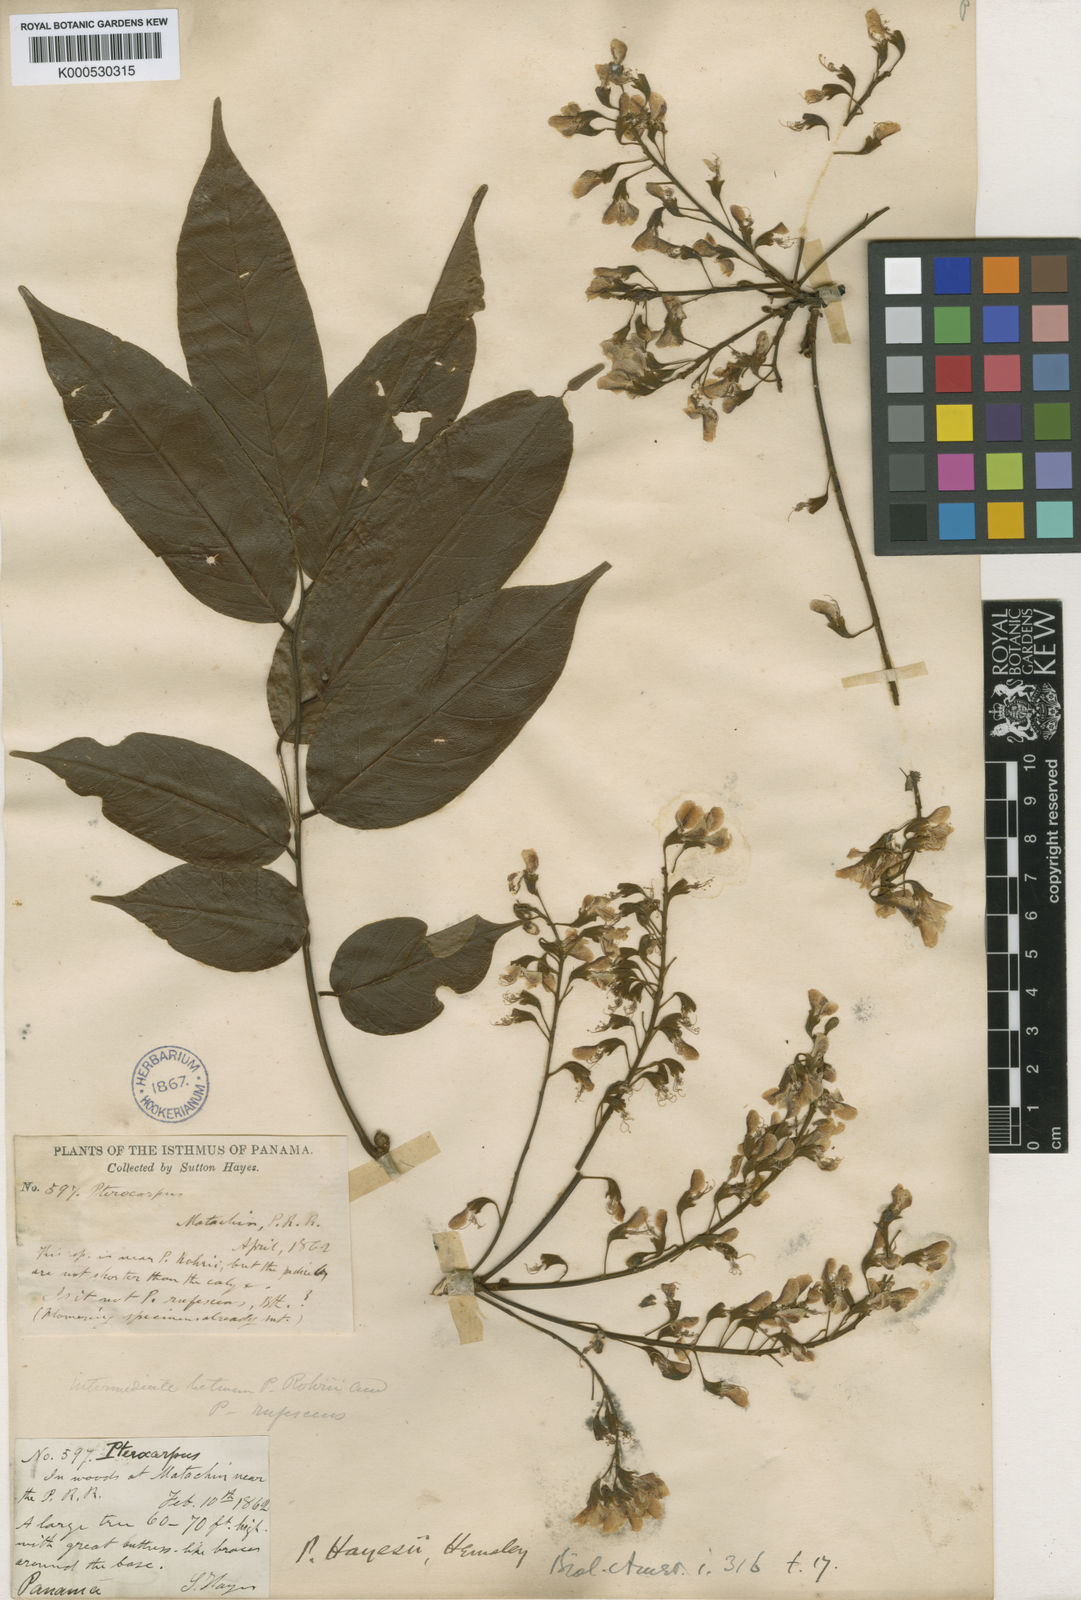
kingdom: Plantae
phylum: Tracheophyta
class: Magnoliopsida
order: Fabales
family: Fabaceae
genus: Pterocarpus
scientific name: Pterocarpus rohrii
